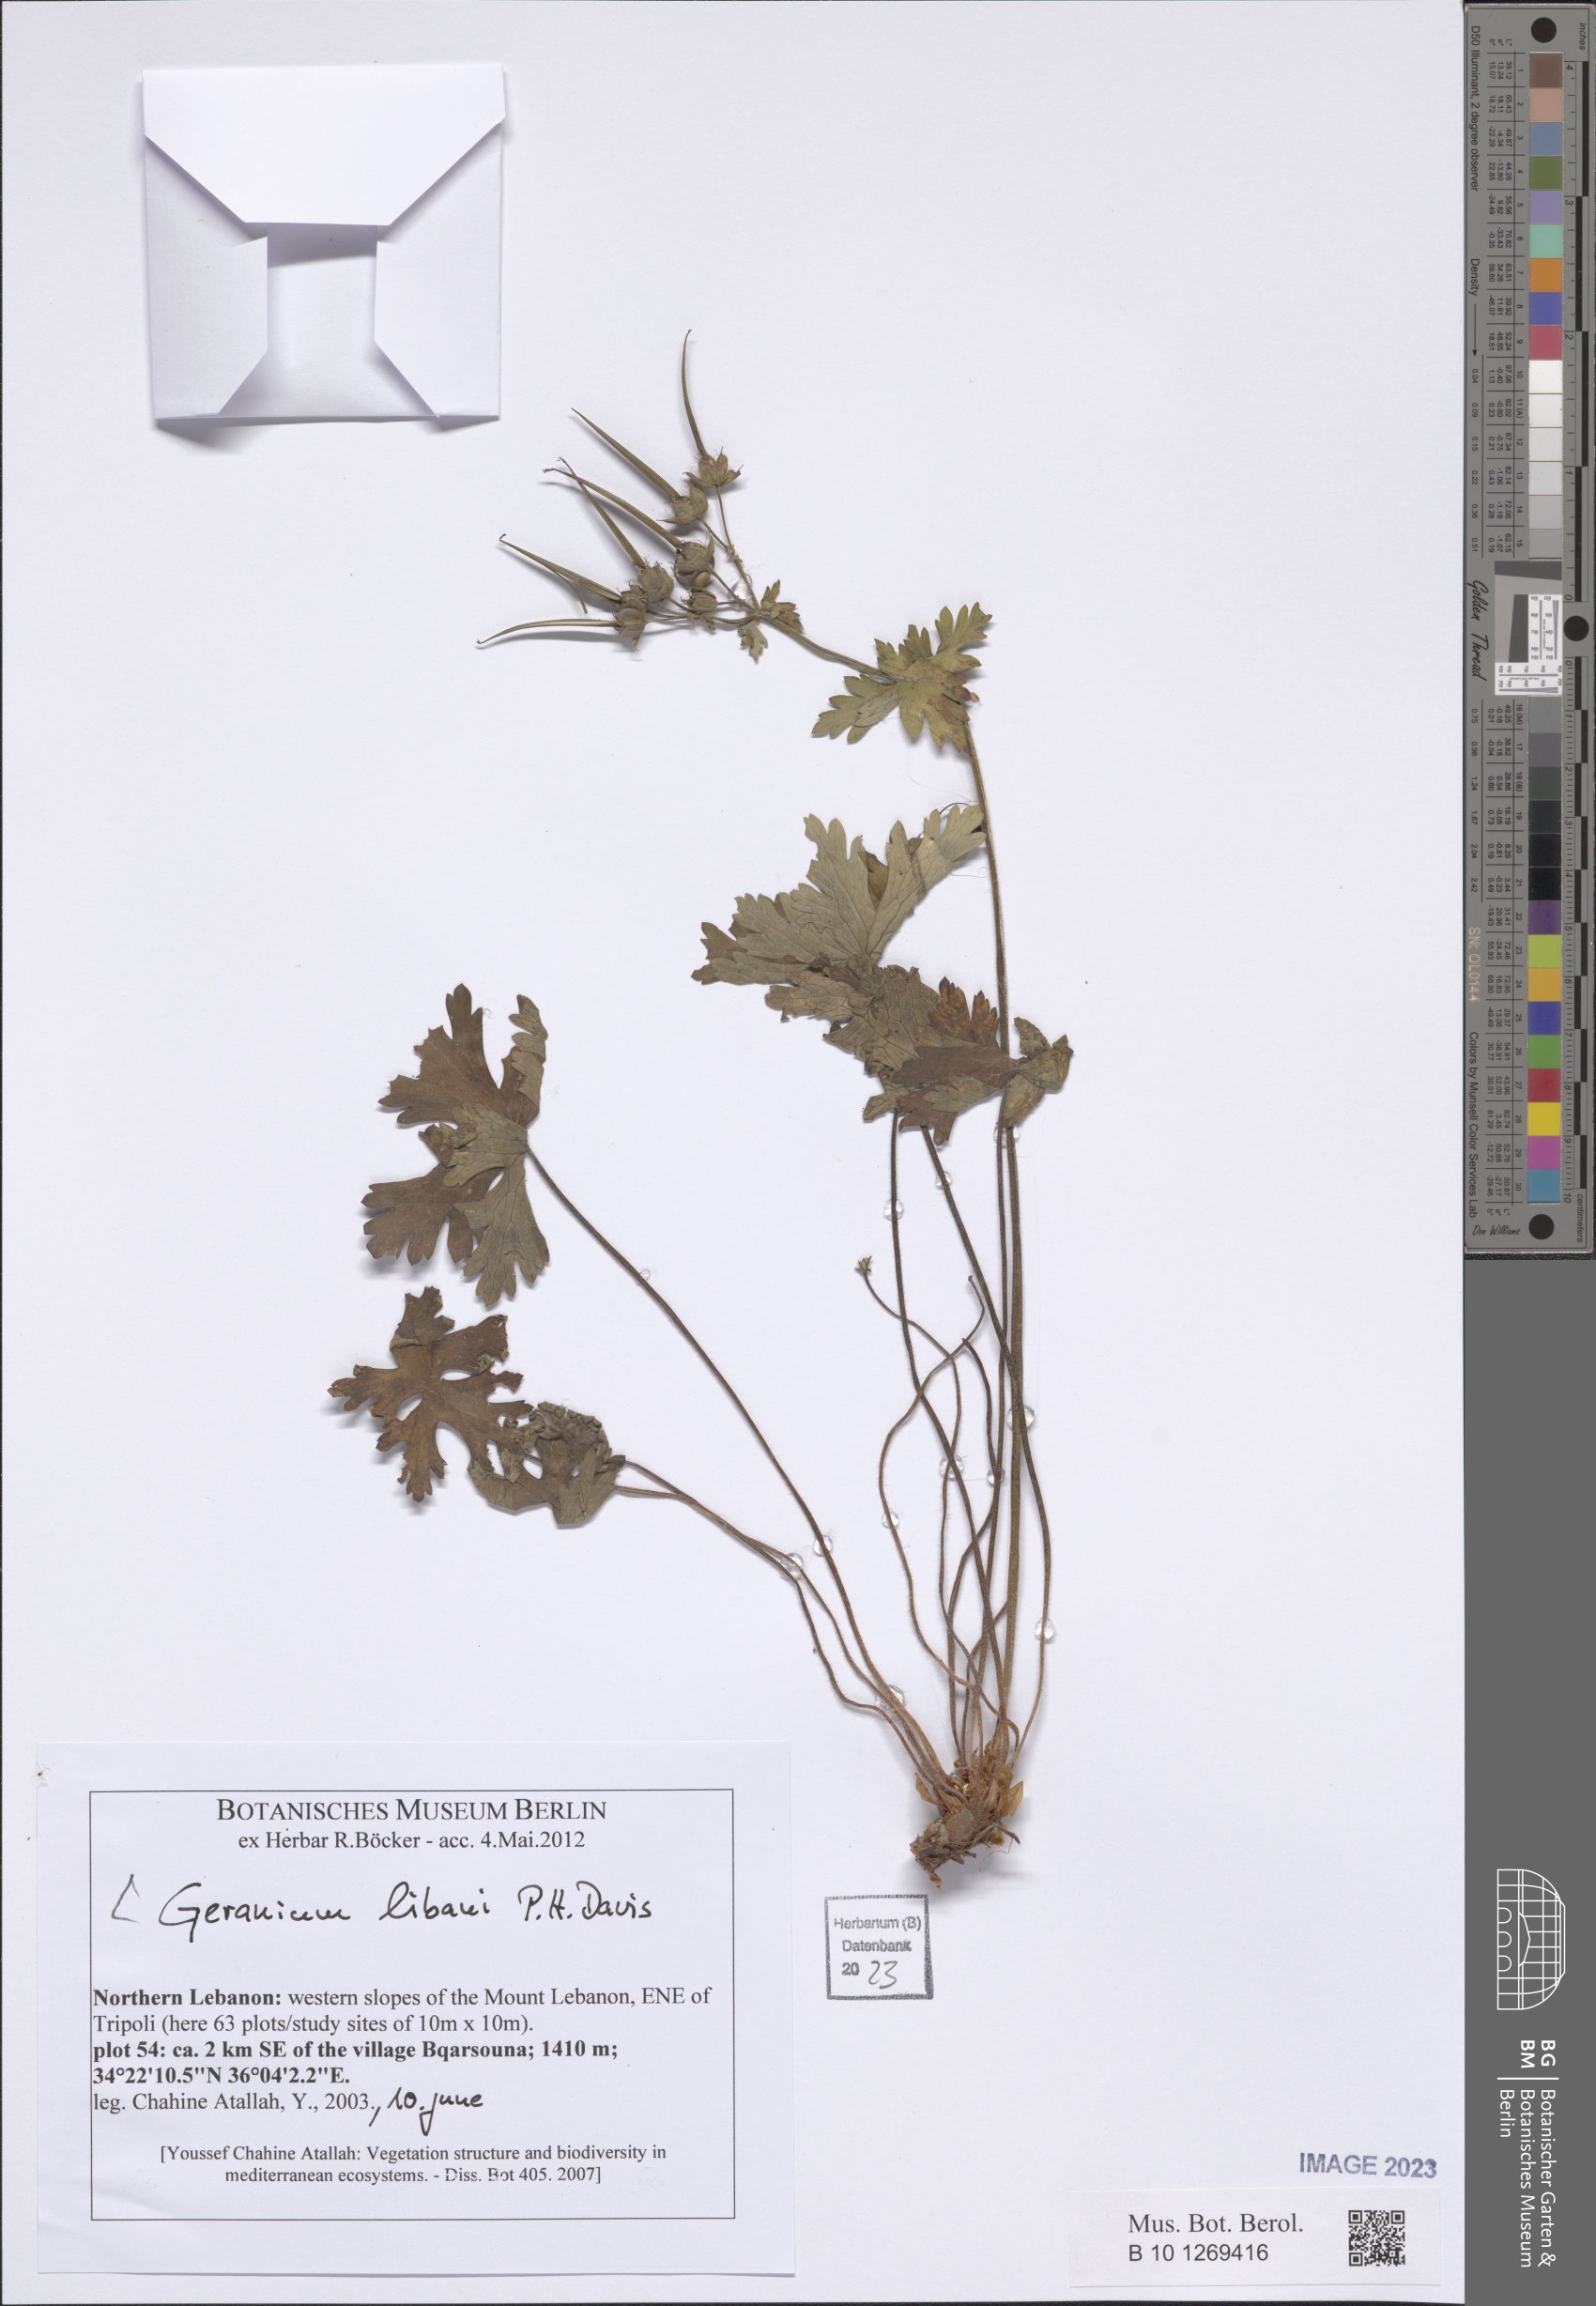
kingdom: Plantae
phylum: Tracheophyta
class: Magnoliopsida
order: Geraniales
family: Geraniaceae
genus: Geranium
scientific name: Geranium libani
